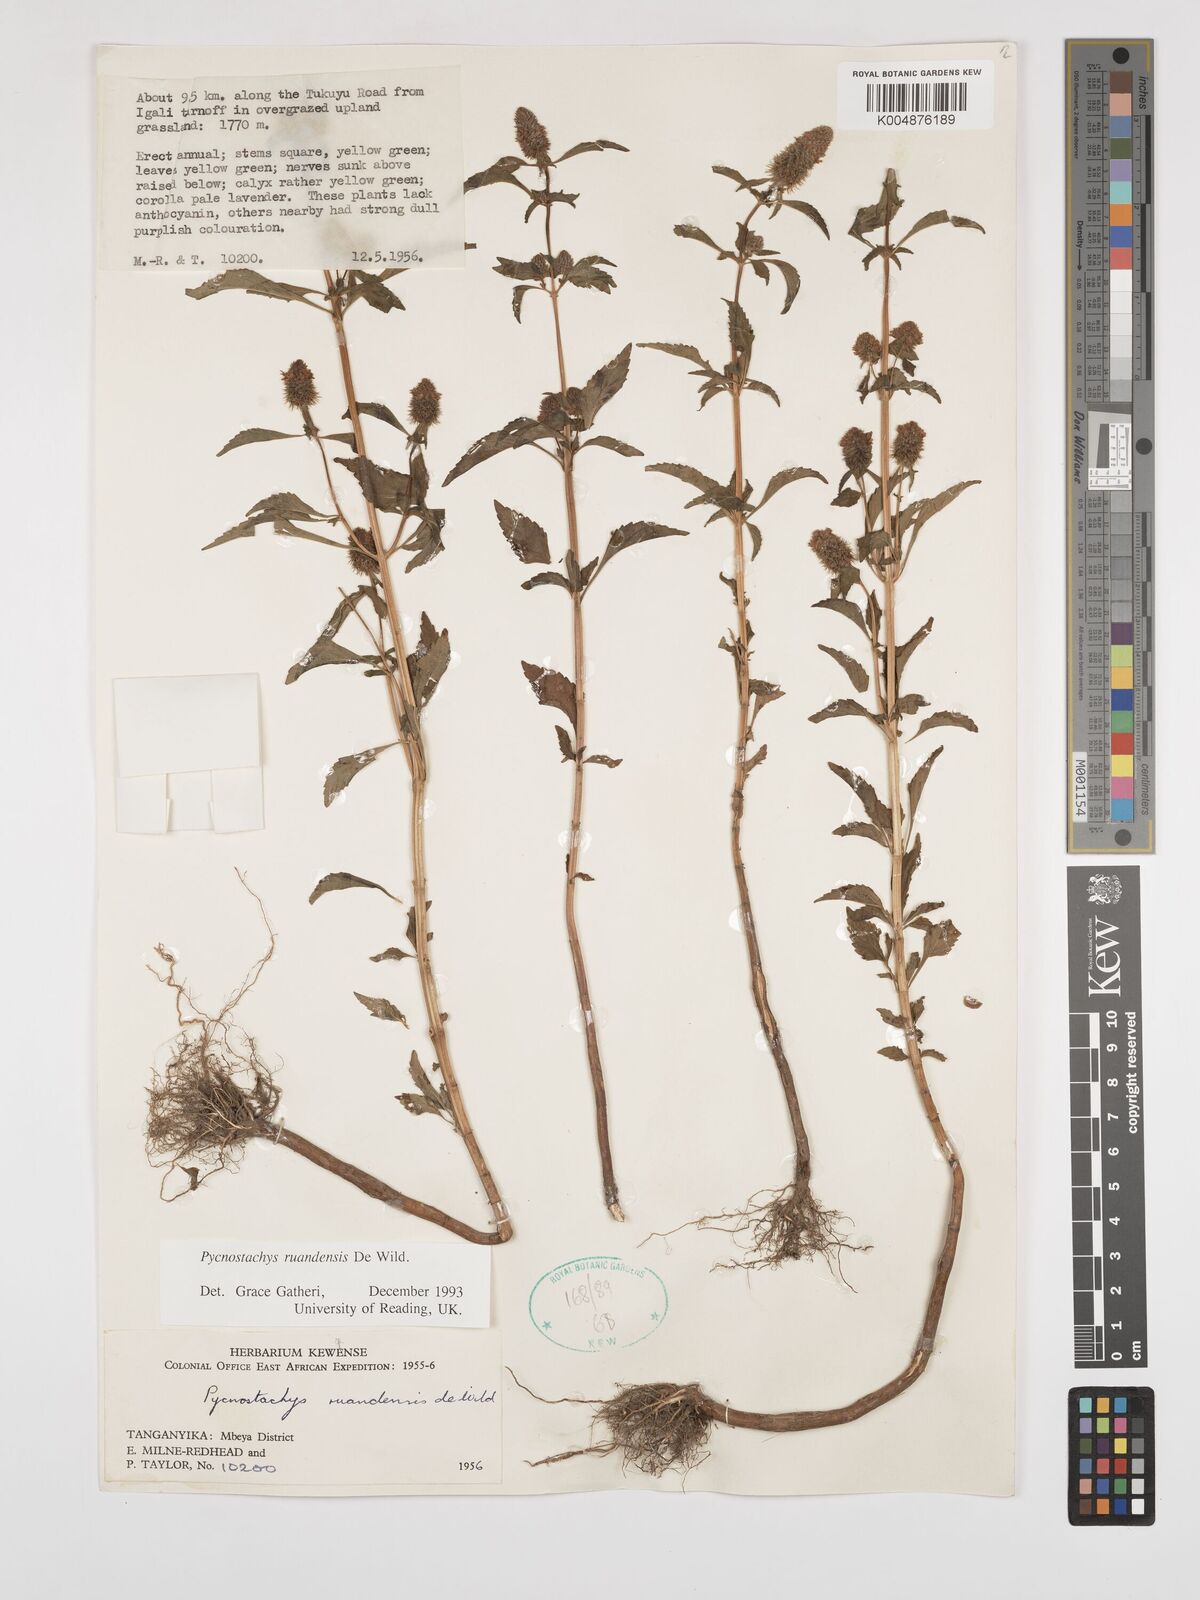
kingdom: Plantae
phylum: Tracheophyta
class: Magnoliopsida
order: Lamiales
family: Lamiaceae
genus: Coleus
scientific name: Coleus ruandensis
